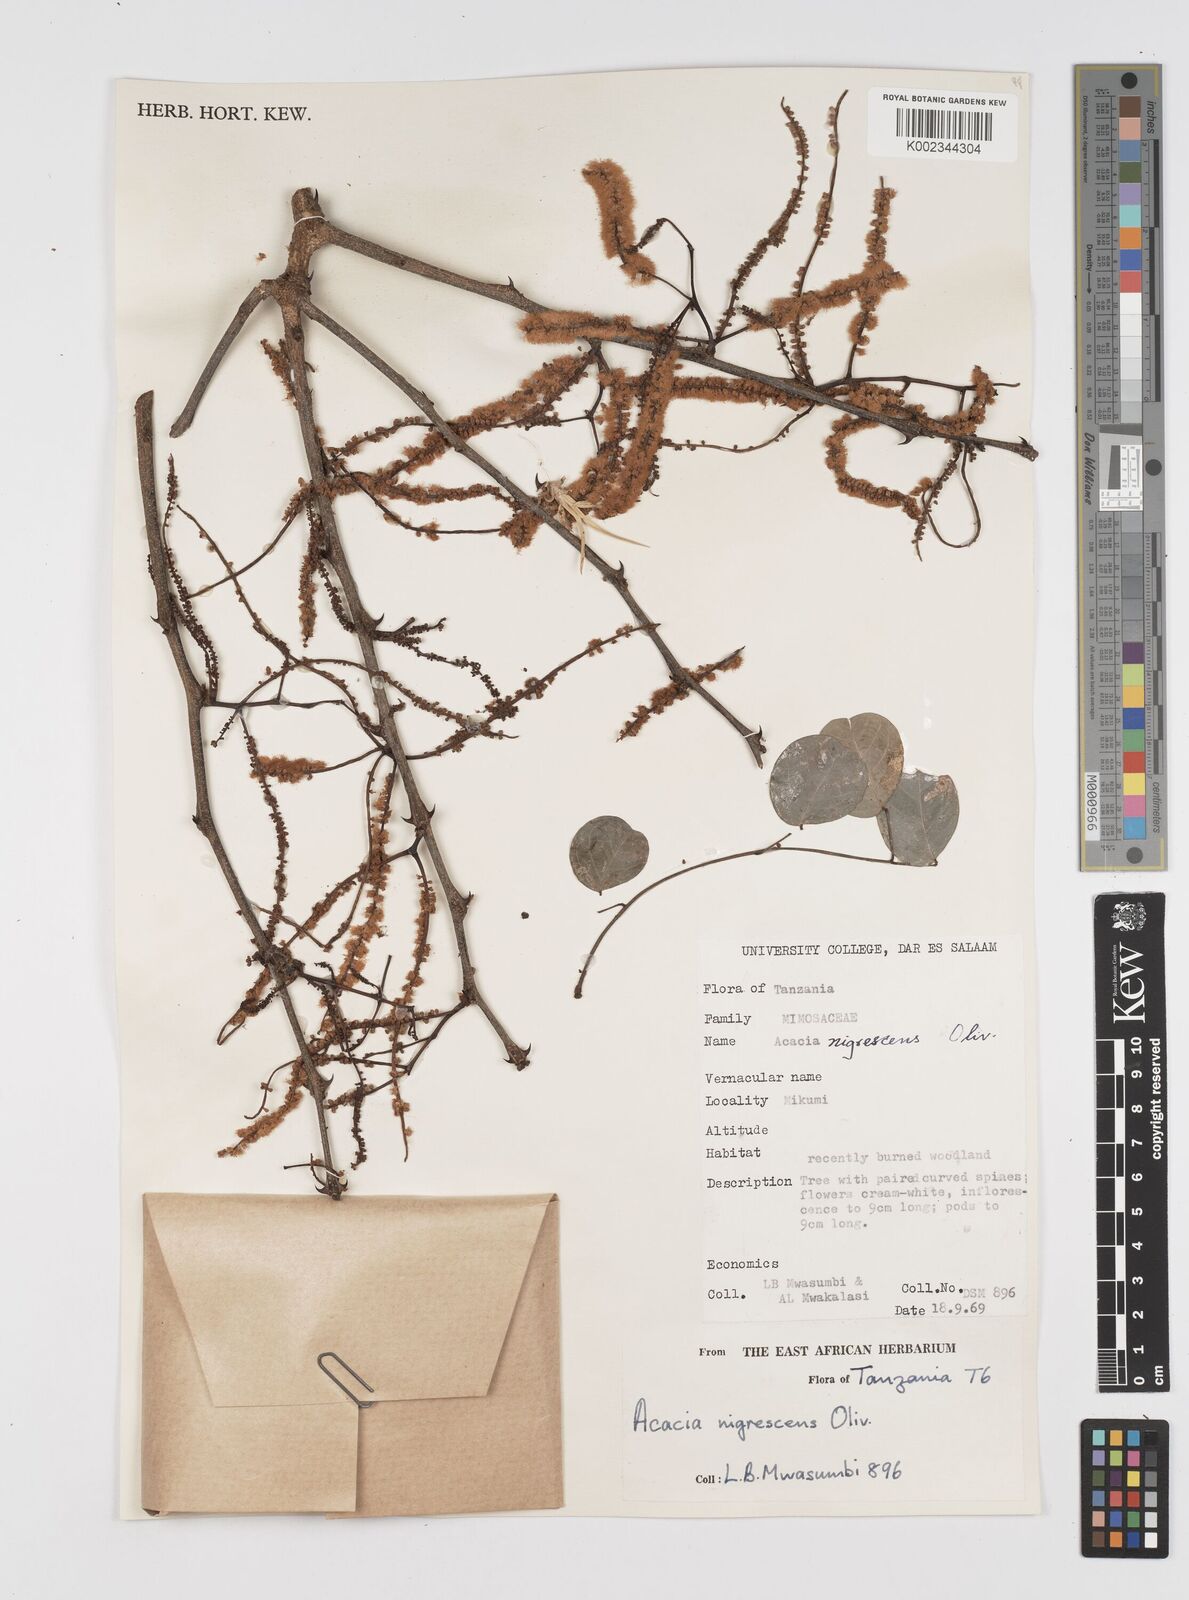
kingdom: Plantae
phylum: Tracheophyta
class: Magnoliopsida
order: Fabales
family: Fabaceae
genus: Senegalia
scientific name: Senegalia nigrescens
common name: Knobthorn
